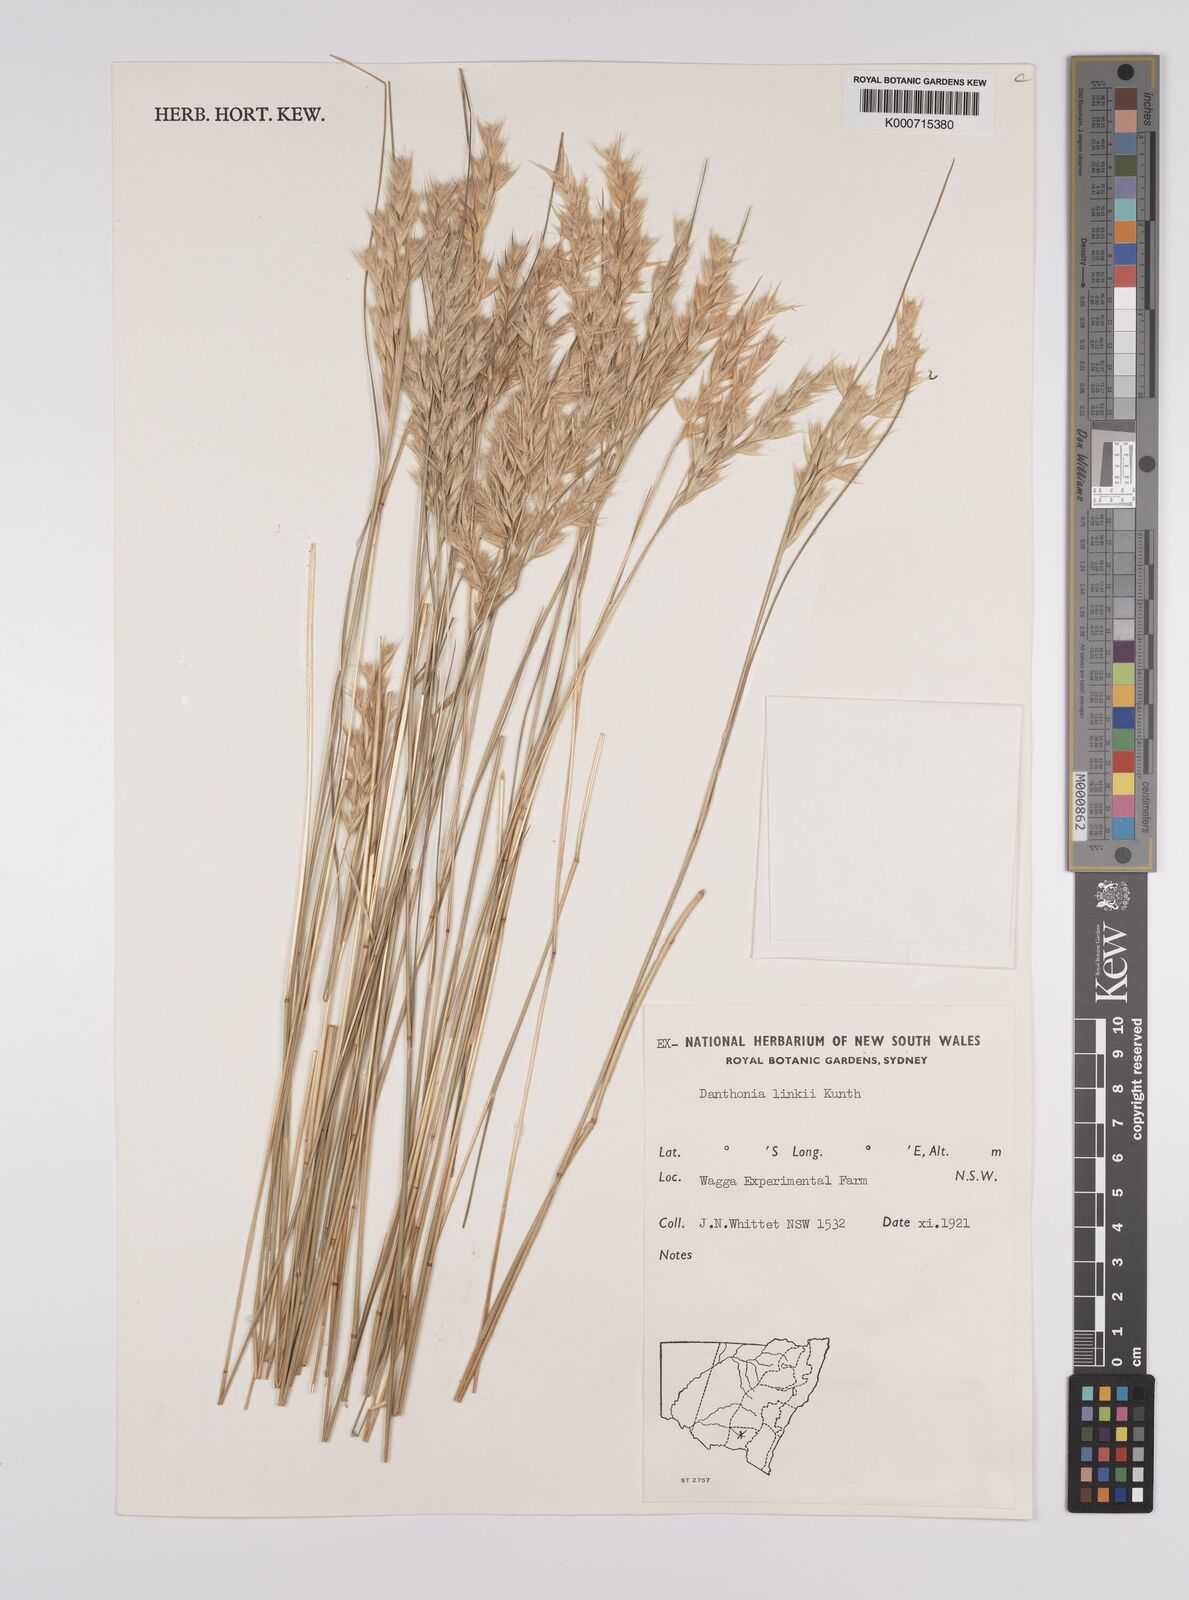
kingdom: Plantae
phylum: Tracheophyta
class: Liliopsida
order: Poales
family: Poaceae
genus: Rytidosperma
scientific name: Rytidosperma bipartitum
